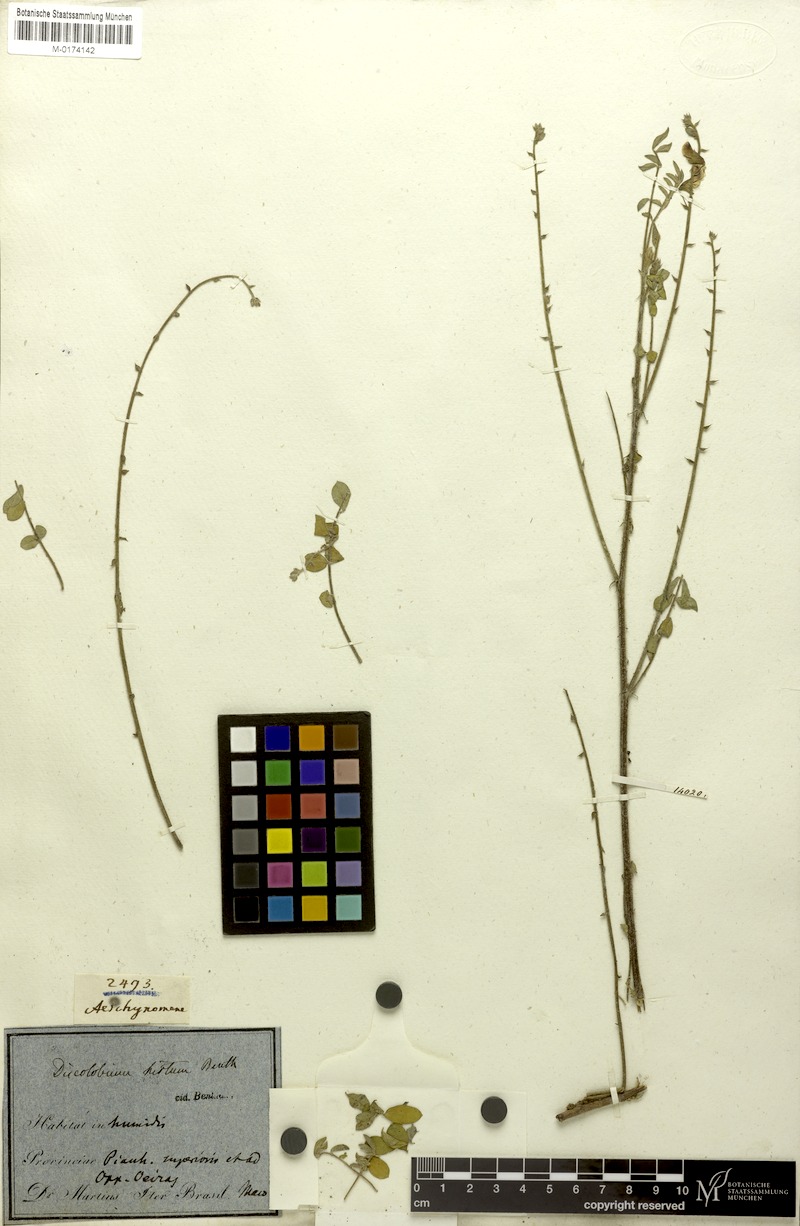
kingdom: Plantae
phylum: Tracheophyta
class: Magnoliopsida
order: Fabales
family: Fabaceae
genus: Discolobium
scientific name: Discolobium hirtum
